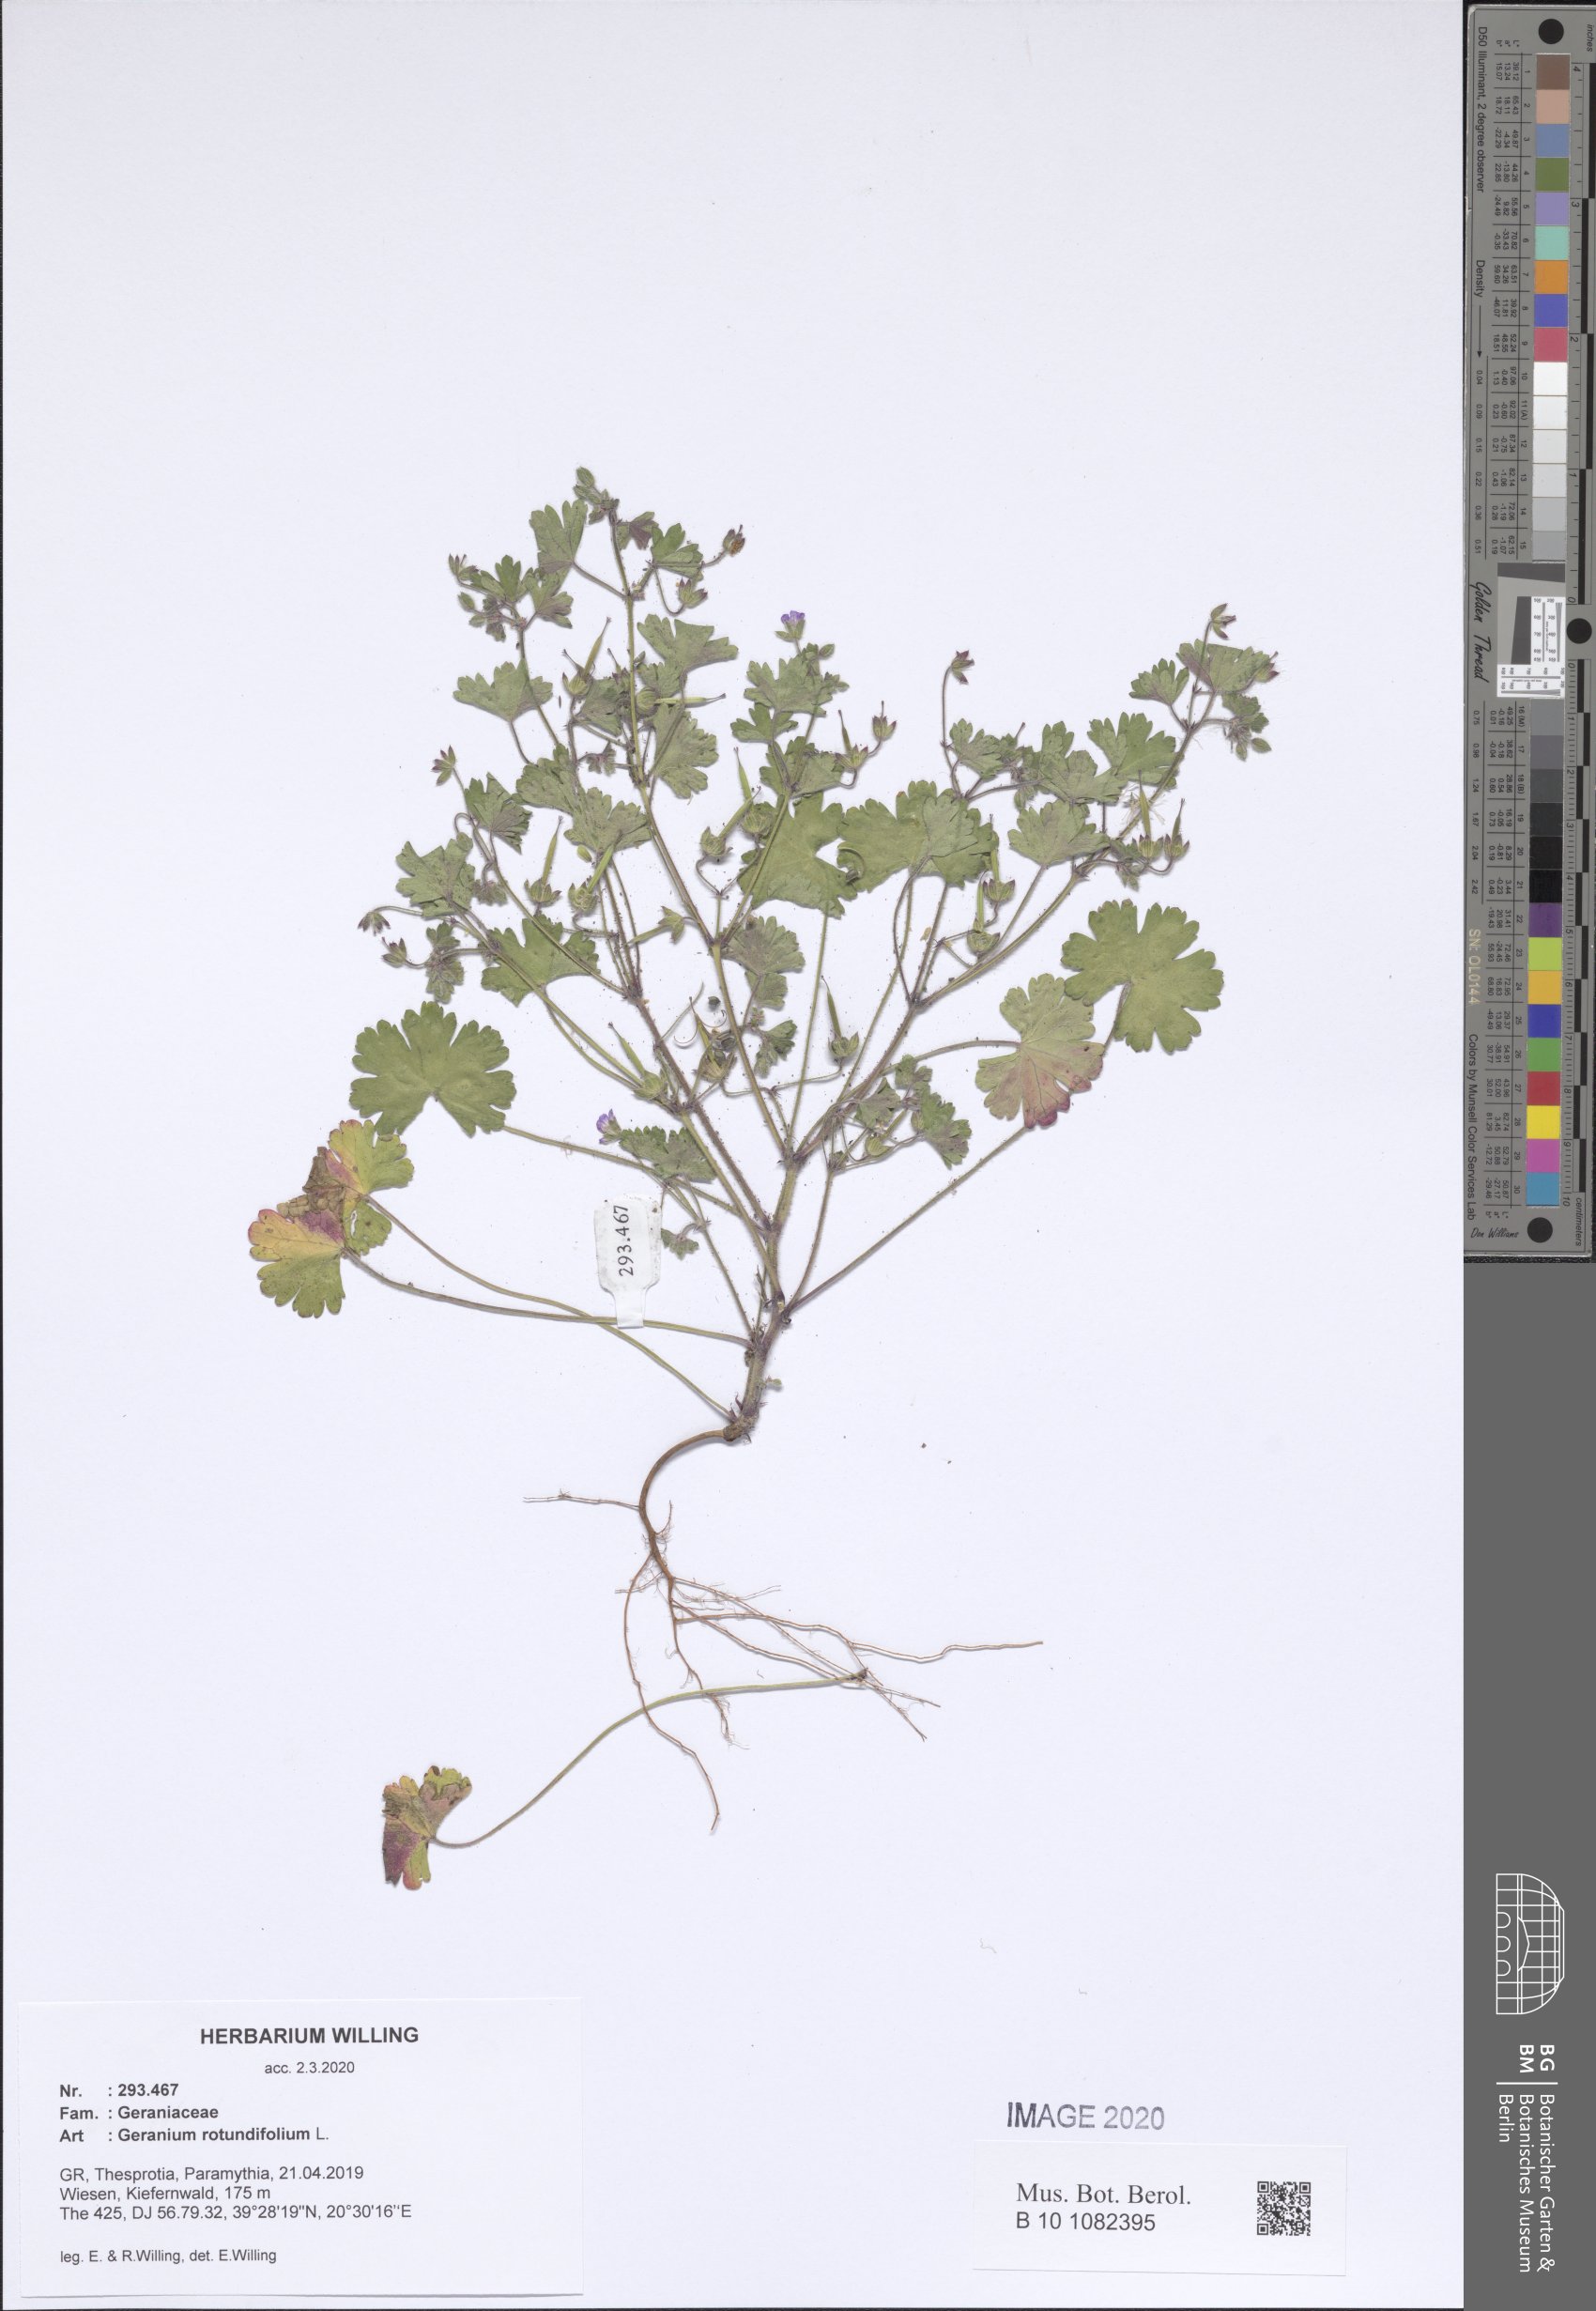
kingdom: Plantae
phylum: Tracheophyta
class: Magnoliopsida
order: Geraniales
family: Geraniaceae
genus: Geranium
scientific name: Geranium rotundifolium
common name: Round-leaved crane's-bill
